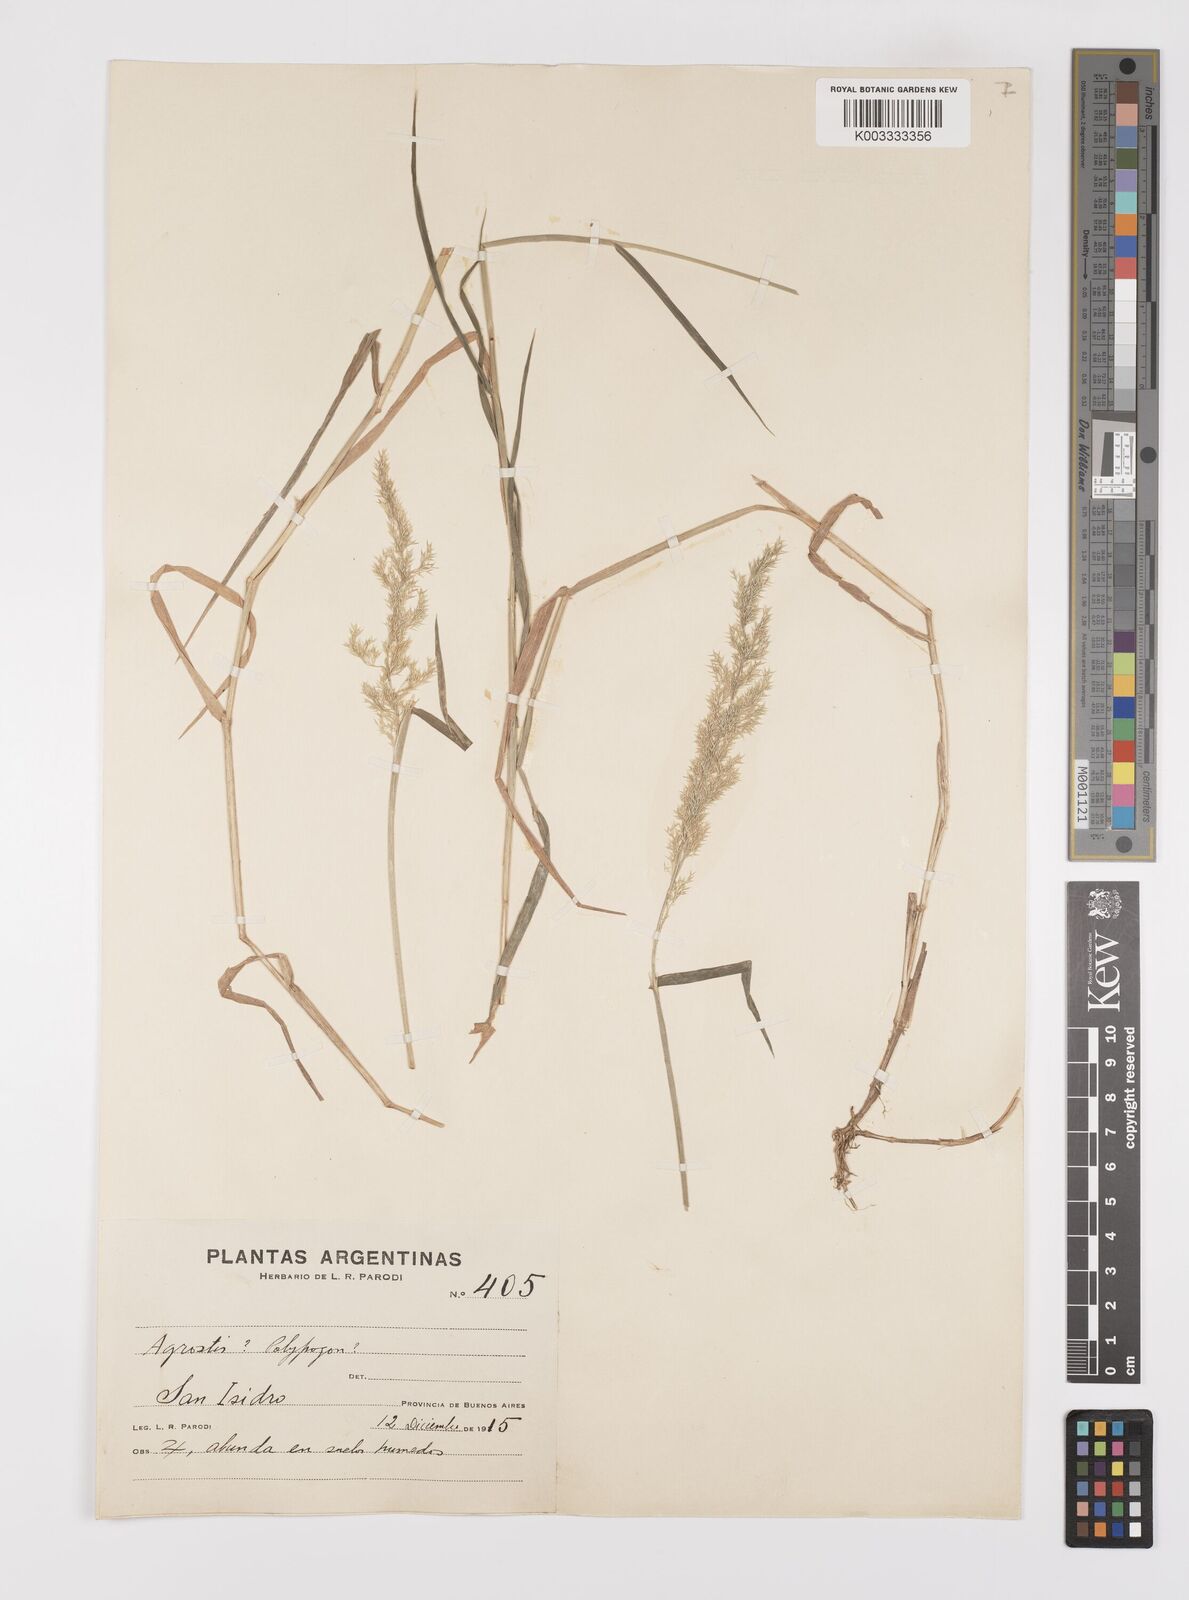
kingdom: Plantae
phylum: Tracheophyta
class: Liliopsida
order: Poales
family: Poaceae
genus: Polypogon
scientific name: Polypogon
